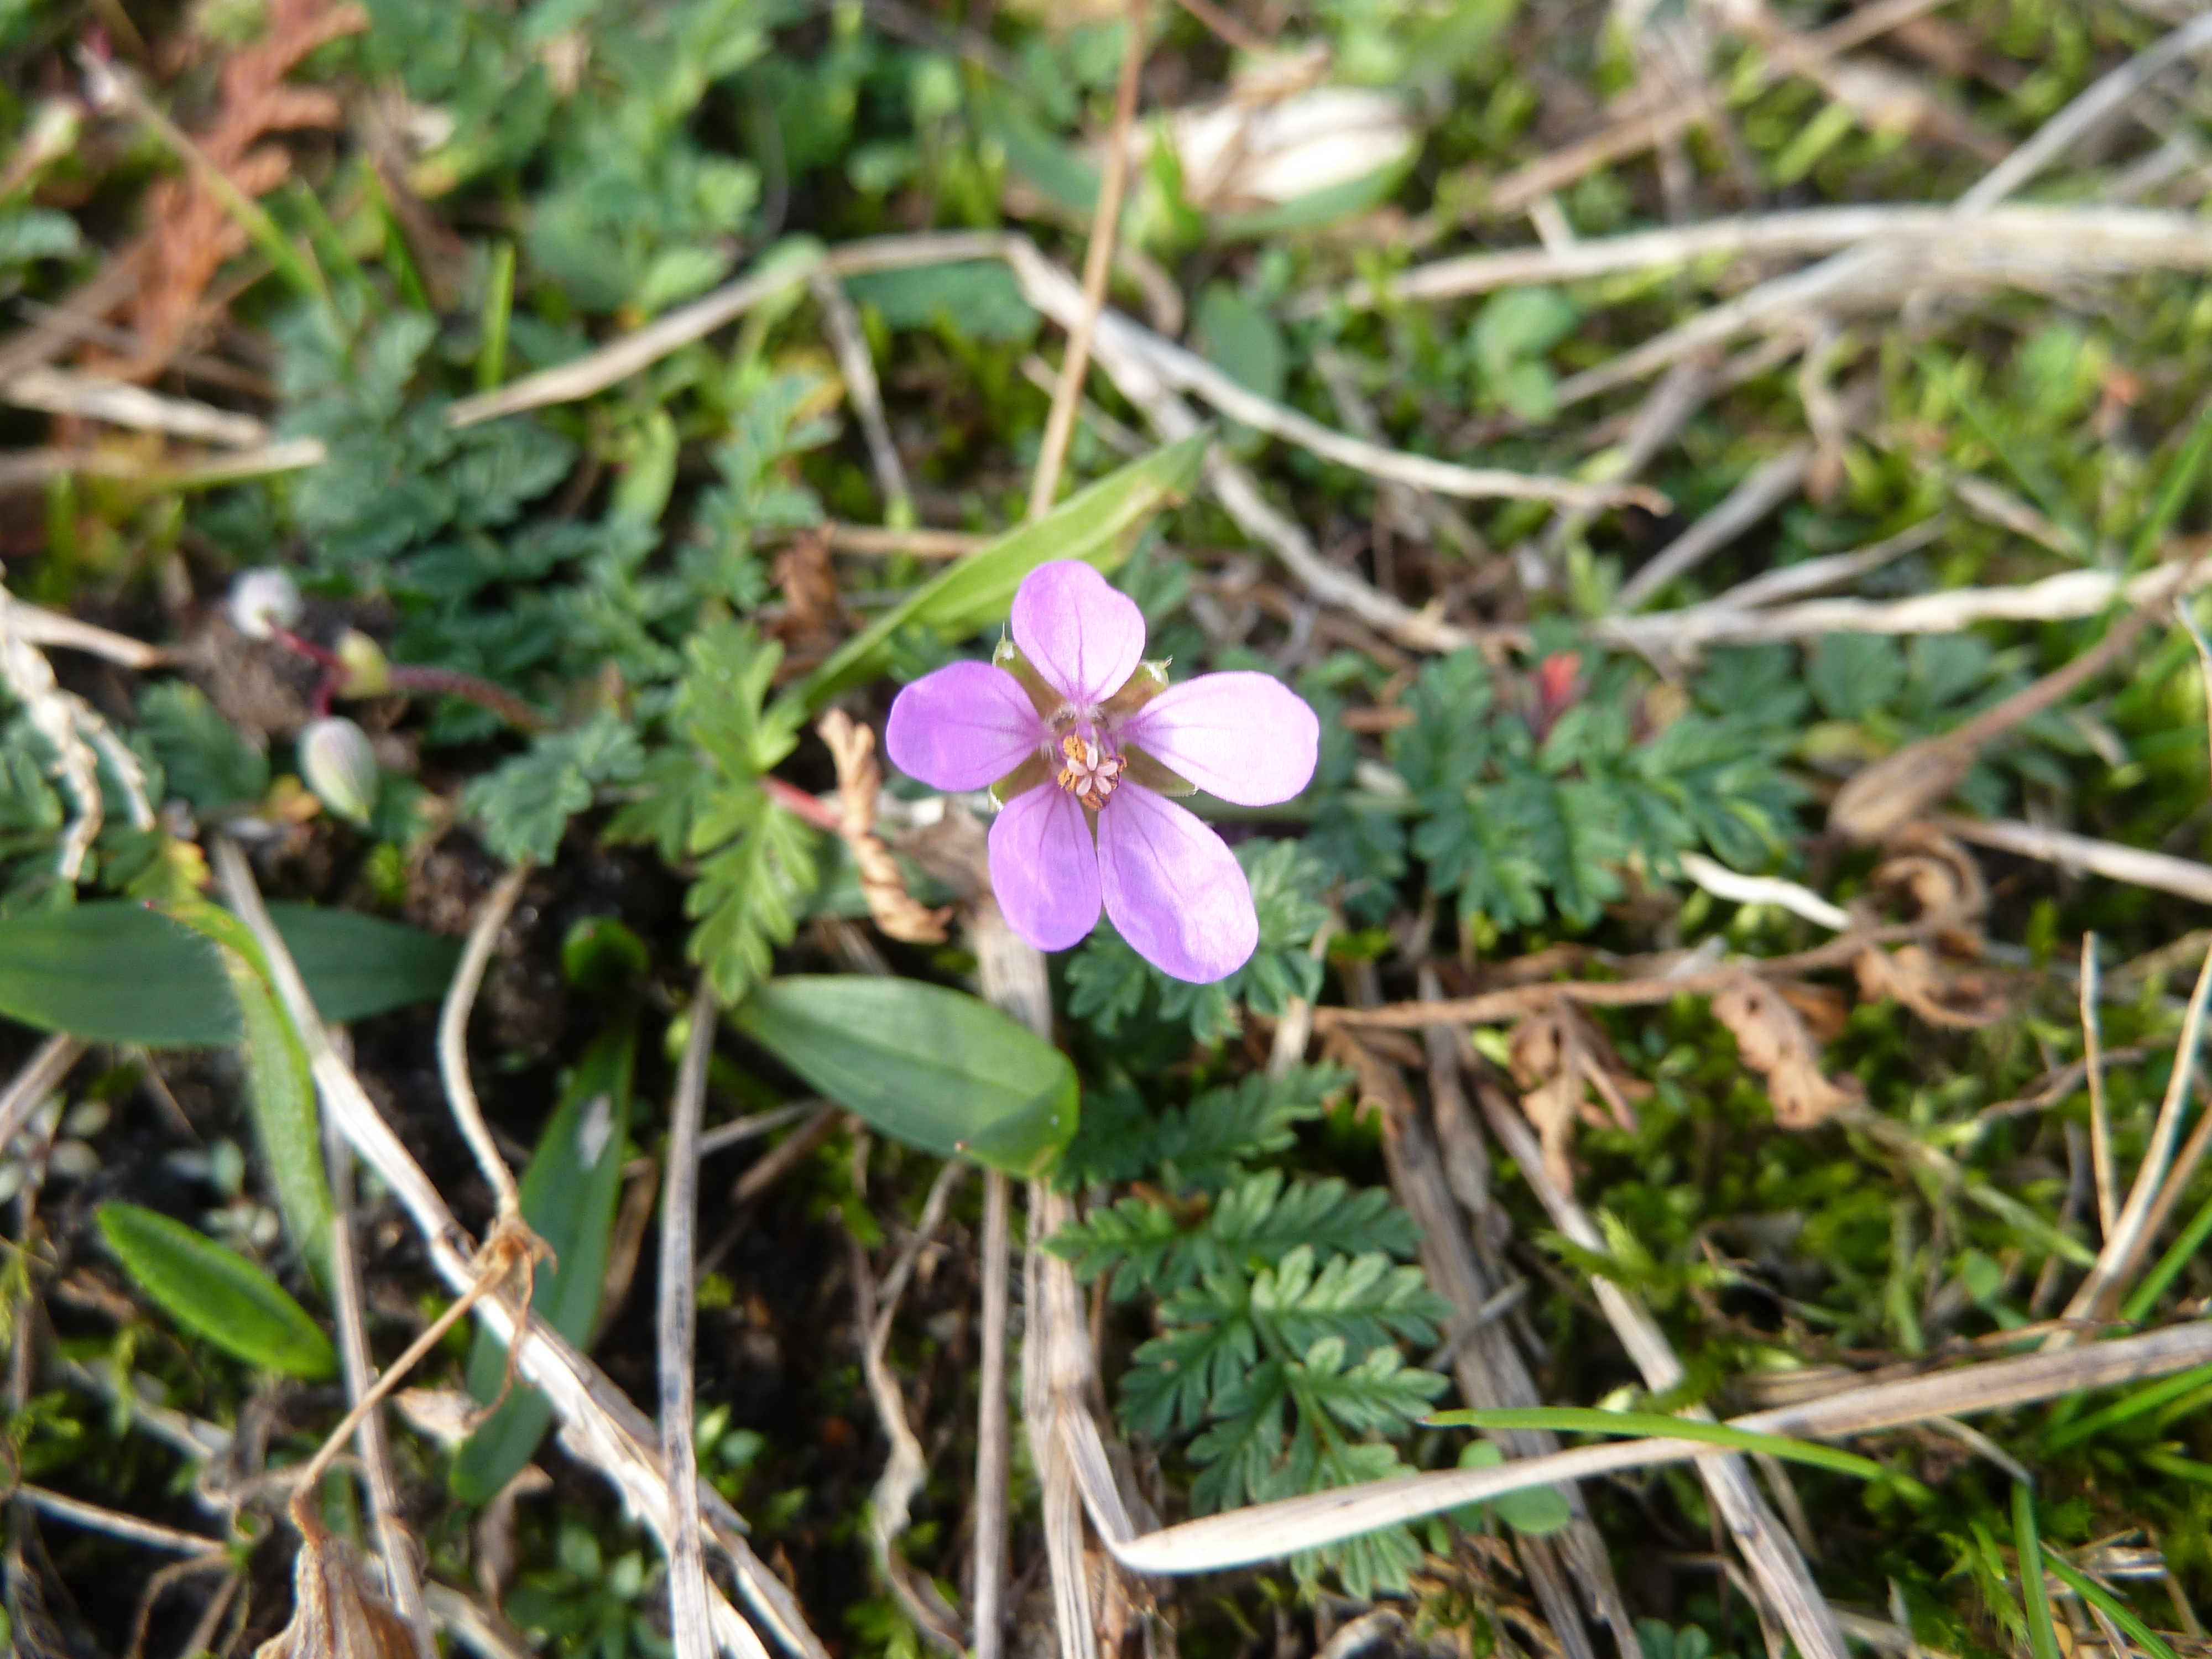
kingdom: Plantae
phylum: Tracheophyta
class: Magnoliopsida
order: Geraniales
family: Geraniaceae
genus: Erodium
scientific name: Erodium cicutarium
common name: Common stork's-bill
